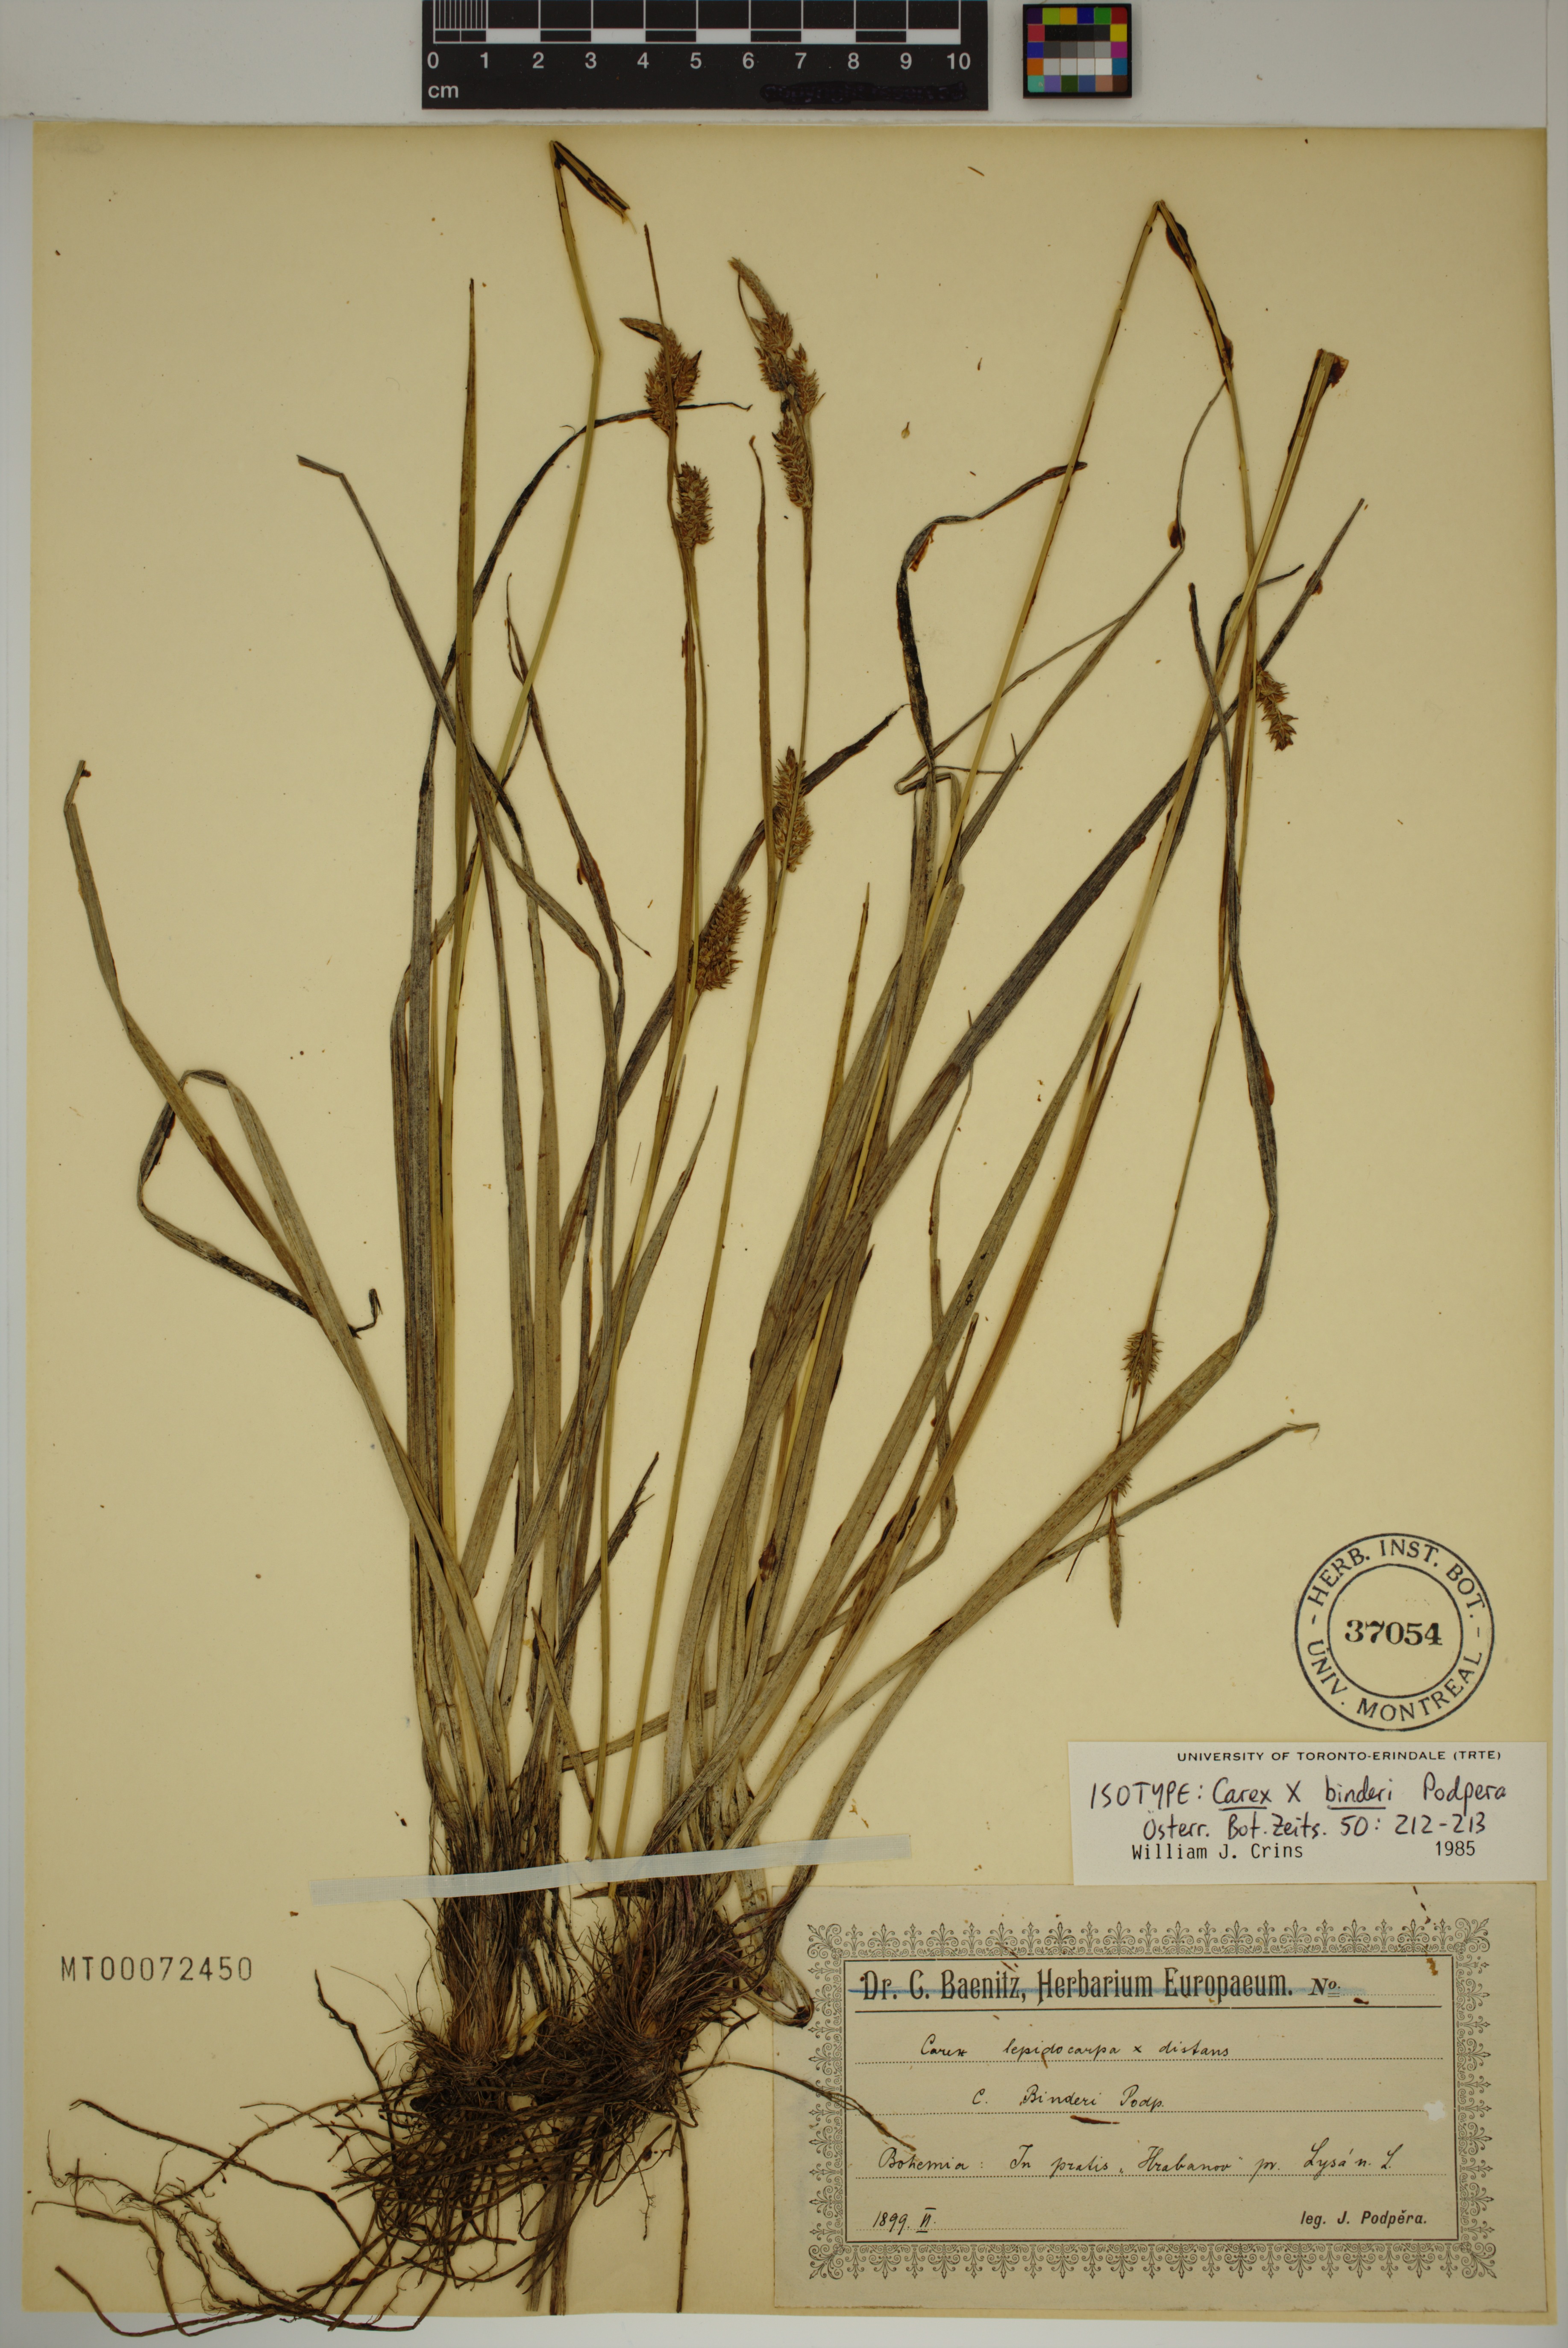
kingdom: Plantae
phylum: Tracheophyta
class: Liliopsida
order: Poales
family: Cyperaceae
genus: Carex
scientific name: Carex binderi
